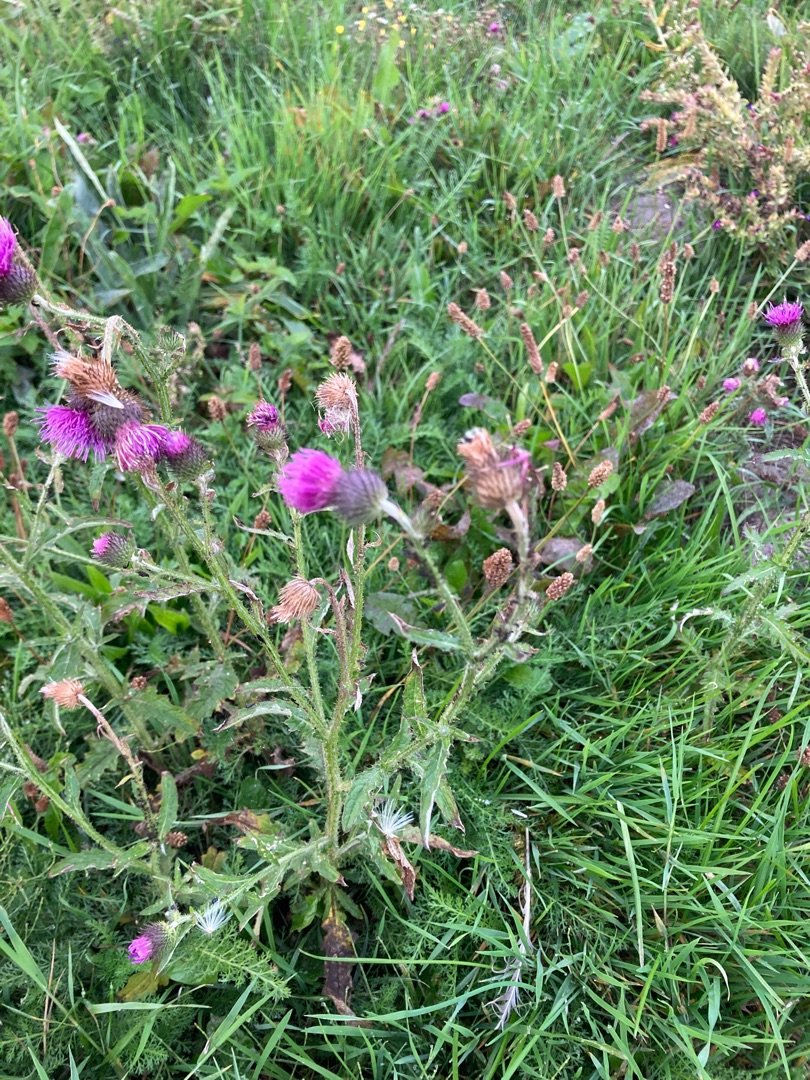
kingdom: Plantae
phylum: Tracheophyta
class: Magnoliopsida
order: Asterales
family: Asteraceae
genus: Carduus
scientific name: Carduus crispus
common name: Kruset tidsel
